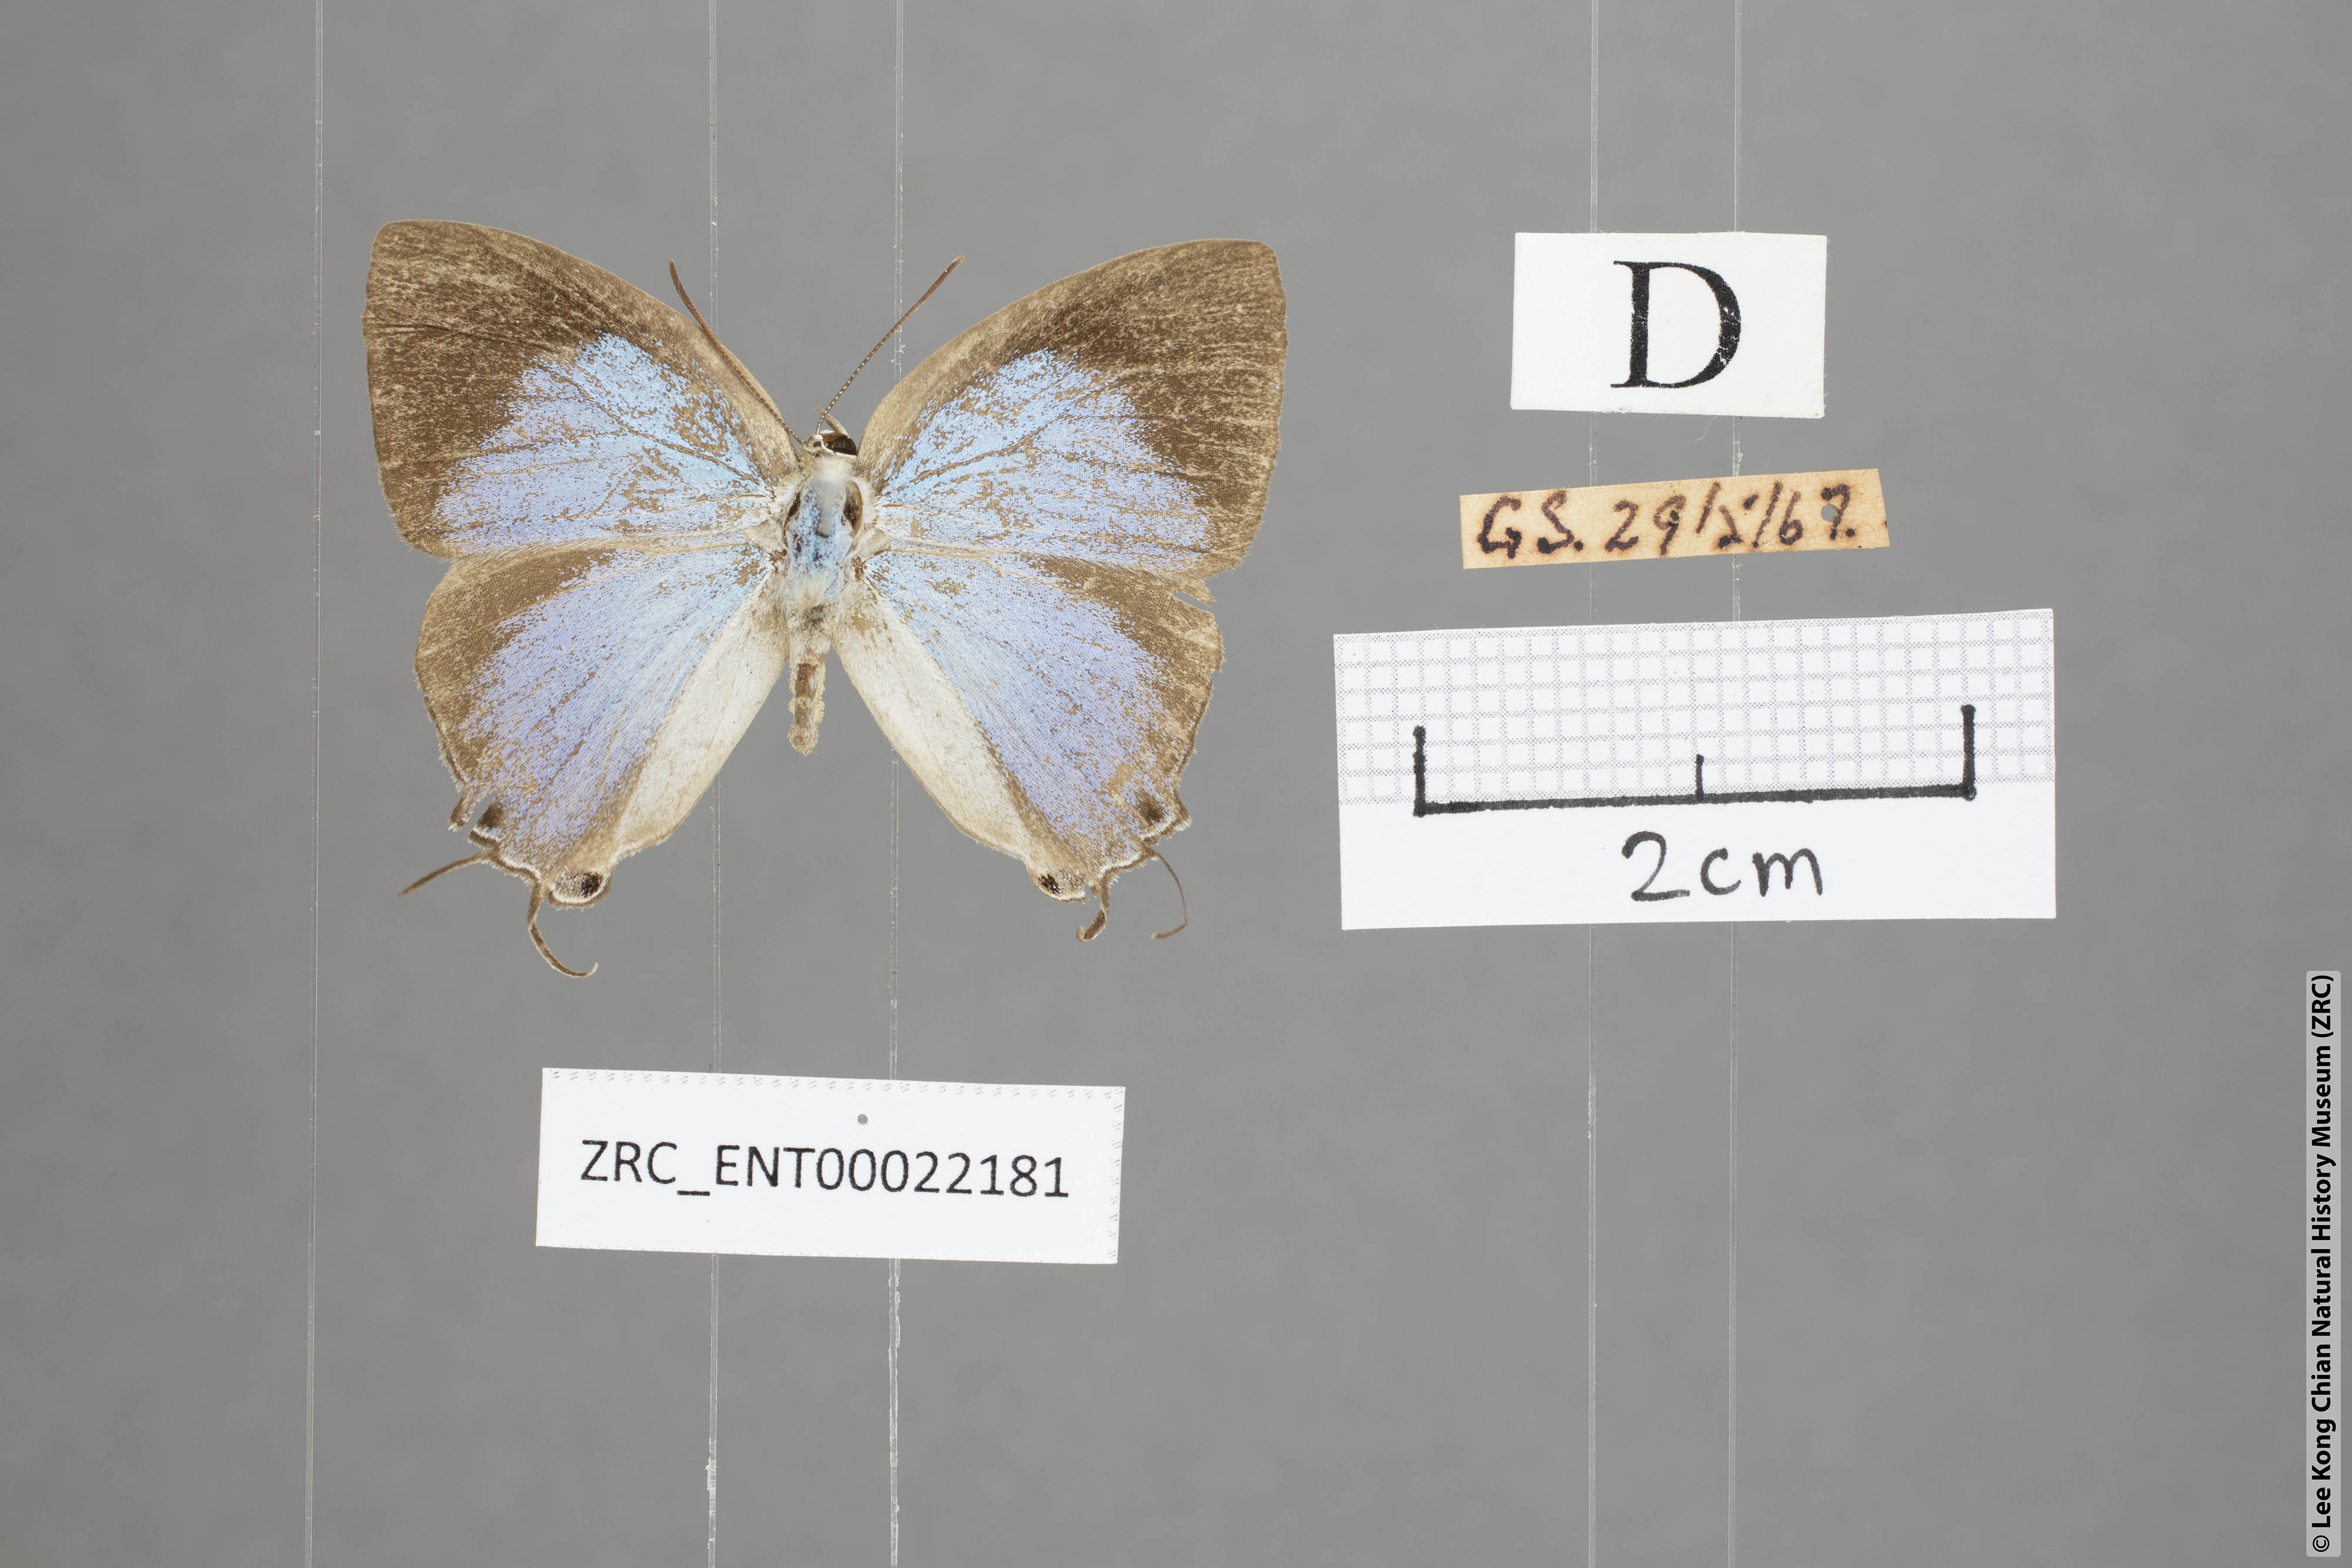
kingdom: Animalia
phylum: Arthropoda
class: Insecta
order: Lepidoptera
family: Lycaenidae
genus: Tajuria
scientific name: Tajuria deudaix
